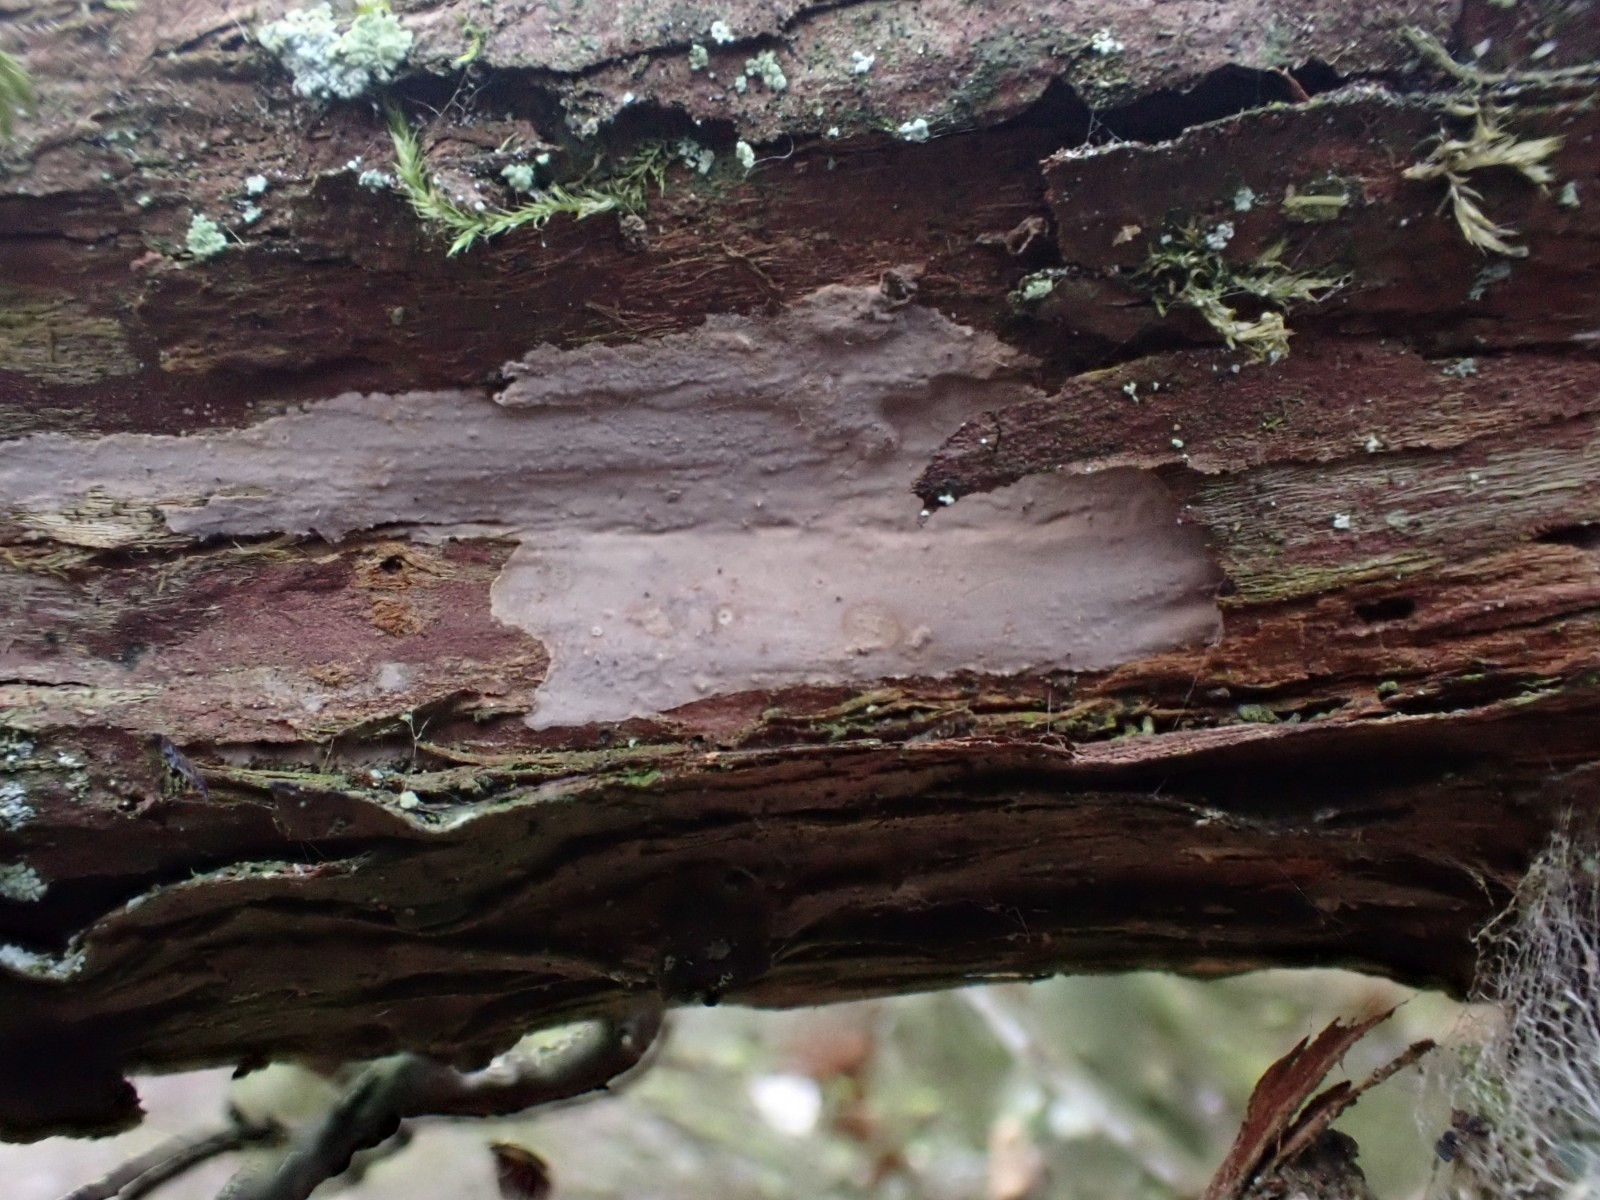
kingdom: Fungi
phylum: Basidiomycota
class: Agaricomycetes
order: Russulales
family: Echinodontiaceae
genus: Amylostereum
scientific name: Amylostereum laevigatum
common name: ene-lædersvamp
